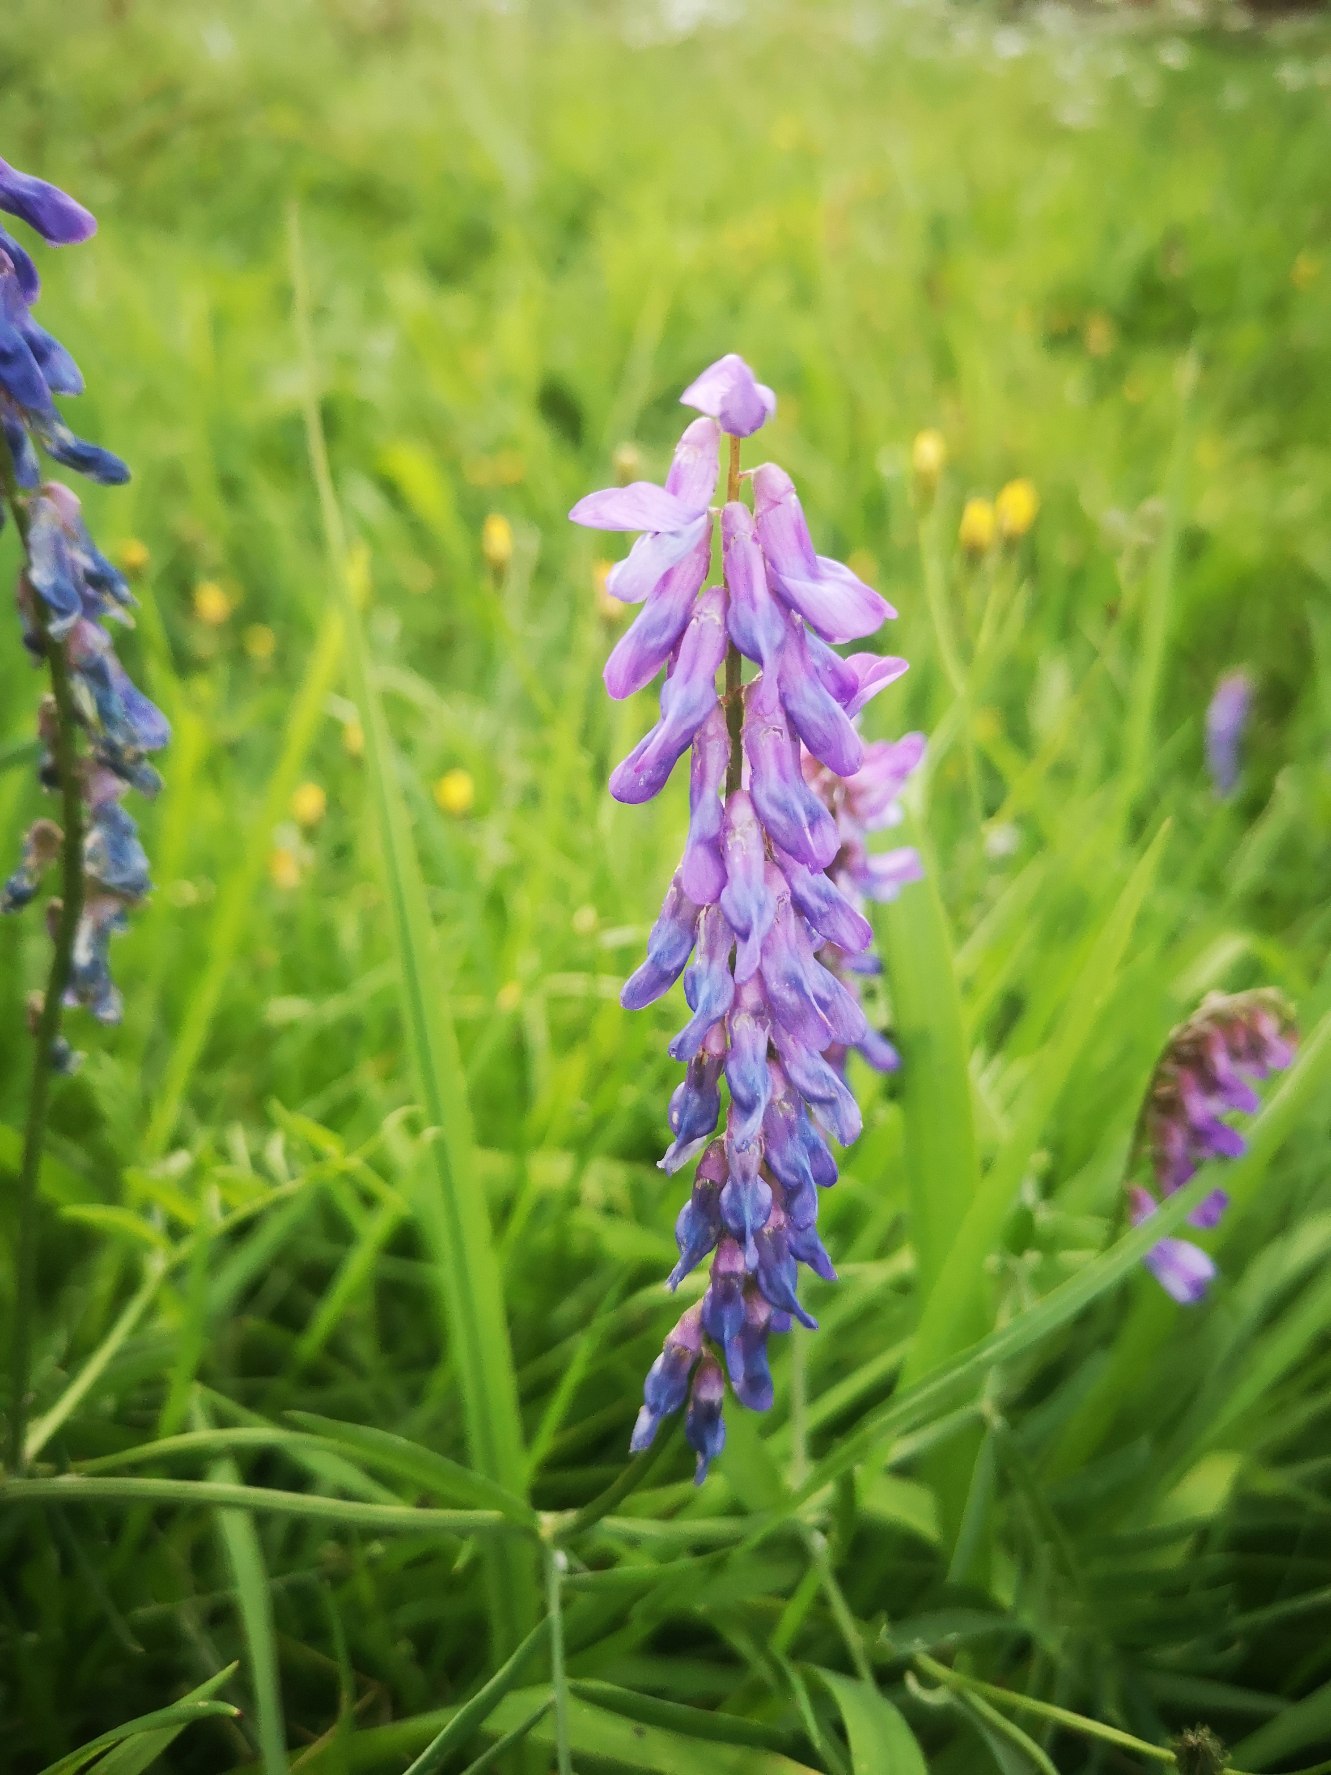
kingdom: Plantae
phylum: Tracheophyta
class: Magnoliopsida
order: Fabales
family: Fabaceae
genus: Vicia
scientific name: Vicia cracca
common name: Muse-vikke
